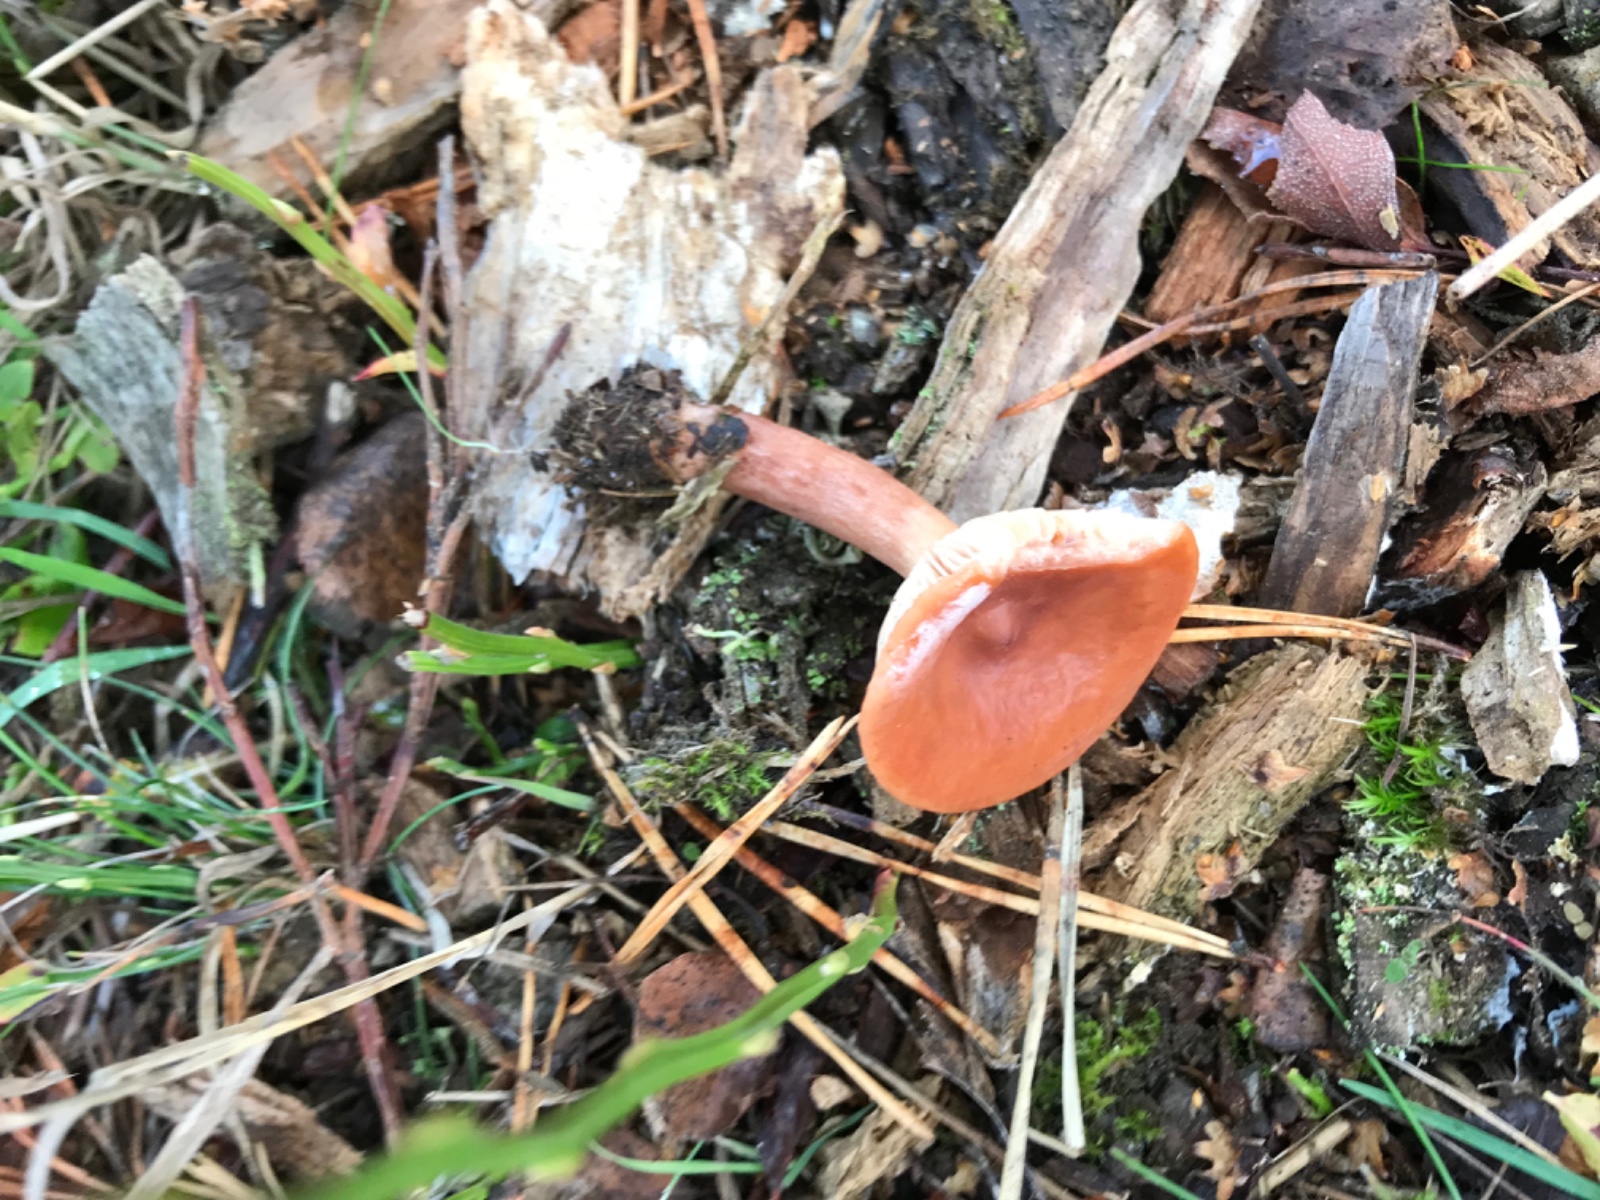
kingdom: Fungi
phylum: Basidiomycota
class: Agaricomycetes
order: Russulales
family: Russulaceae
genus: Lactarius
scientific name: Lactarius tabidus
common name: rynket mælkehat
